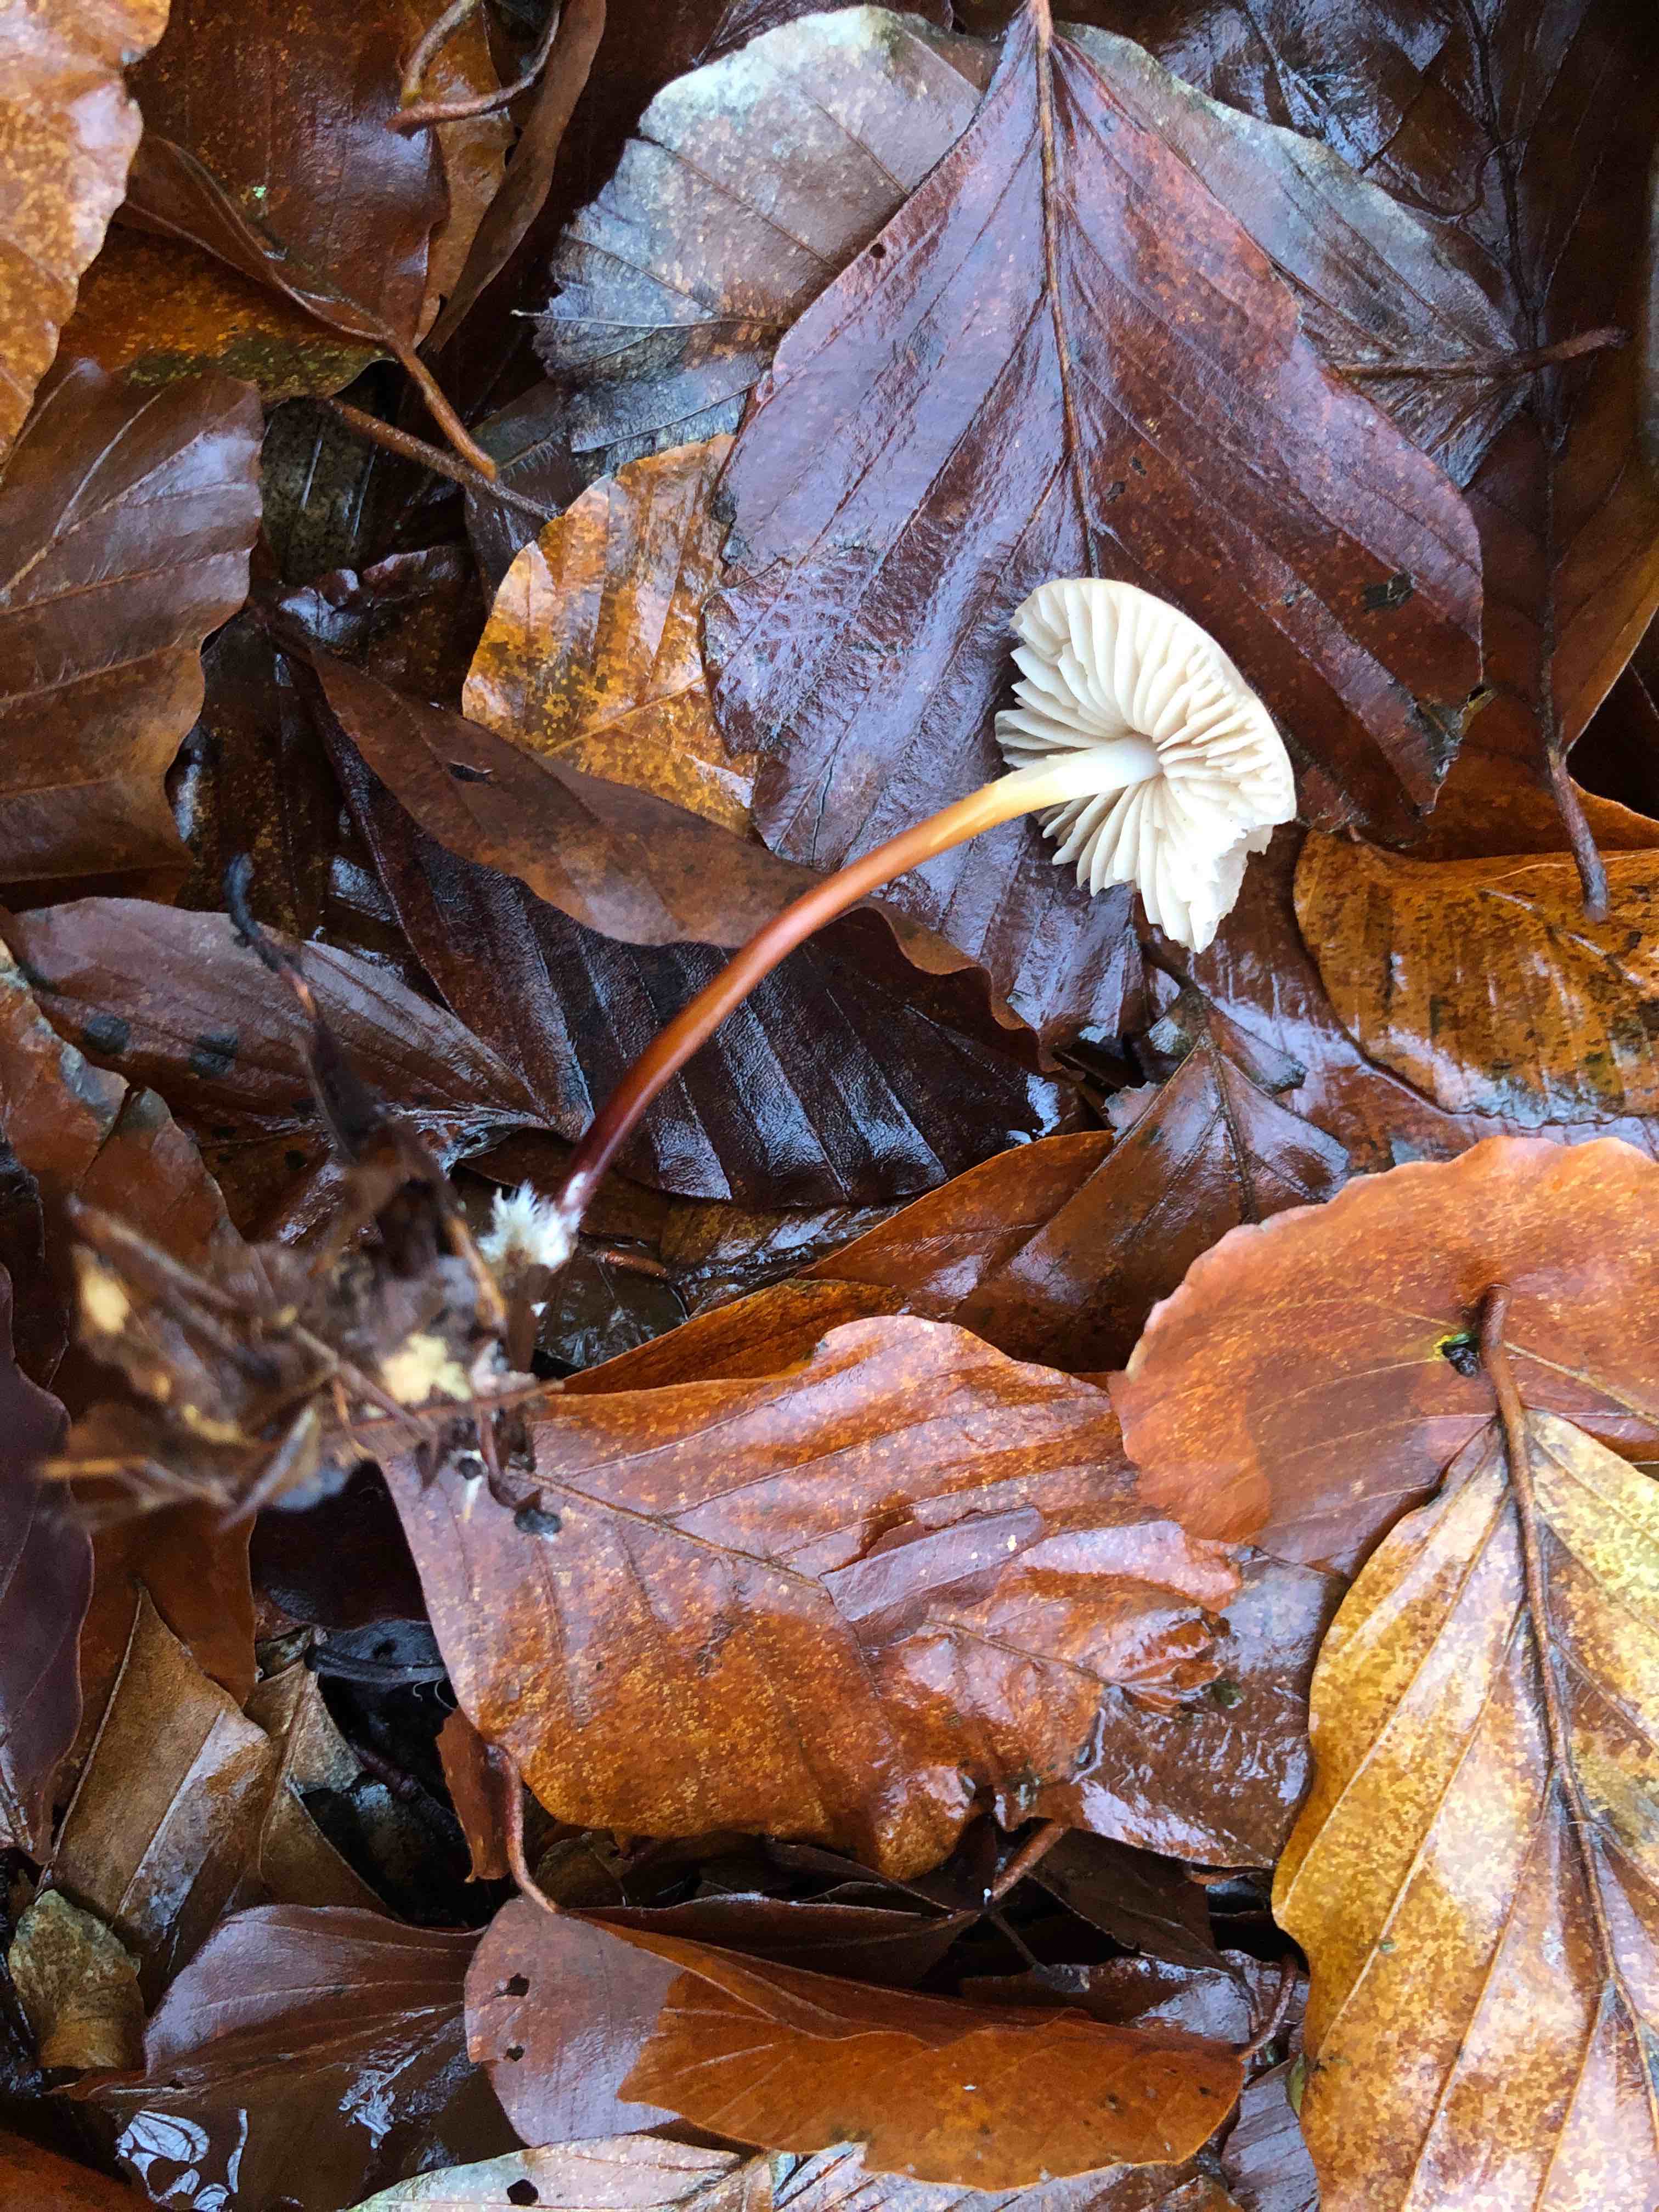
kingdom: Fungi
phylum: Basidiomycota
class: Agaricomycetes
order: Agaricales
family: Marasmiaceae
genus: Marasmius
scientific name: Marasmius cohaerens
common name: hornstokket bruskhat
